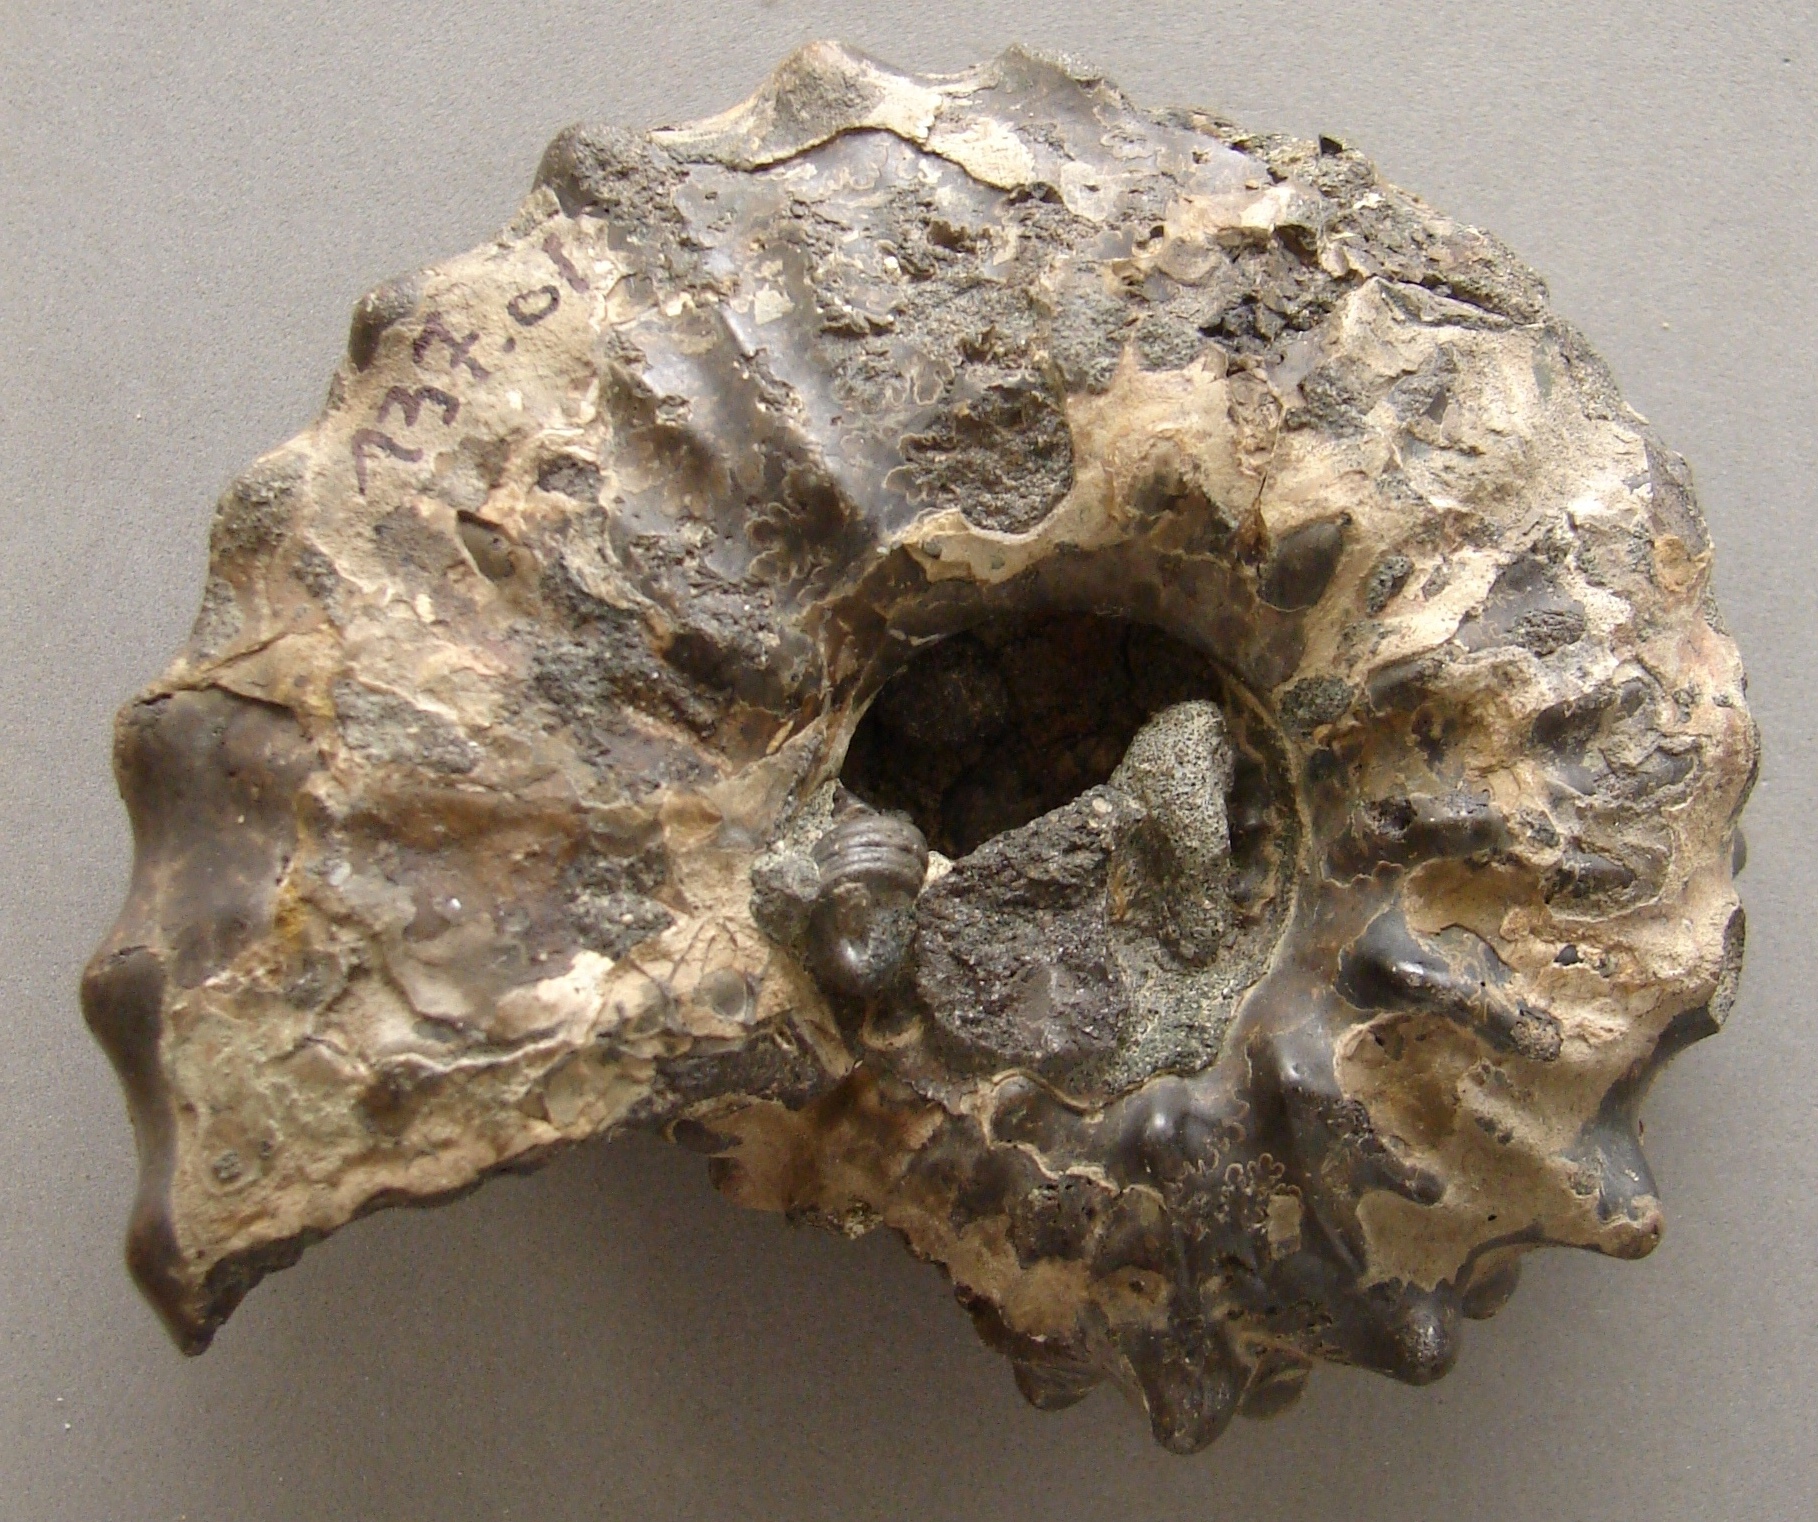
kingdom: Animalia
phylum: Mollusca
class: Cephalopoda
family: Hoplitidae
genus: Otohoplites
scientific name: Otohoplites raulinianus
